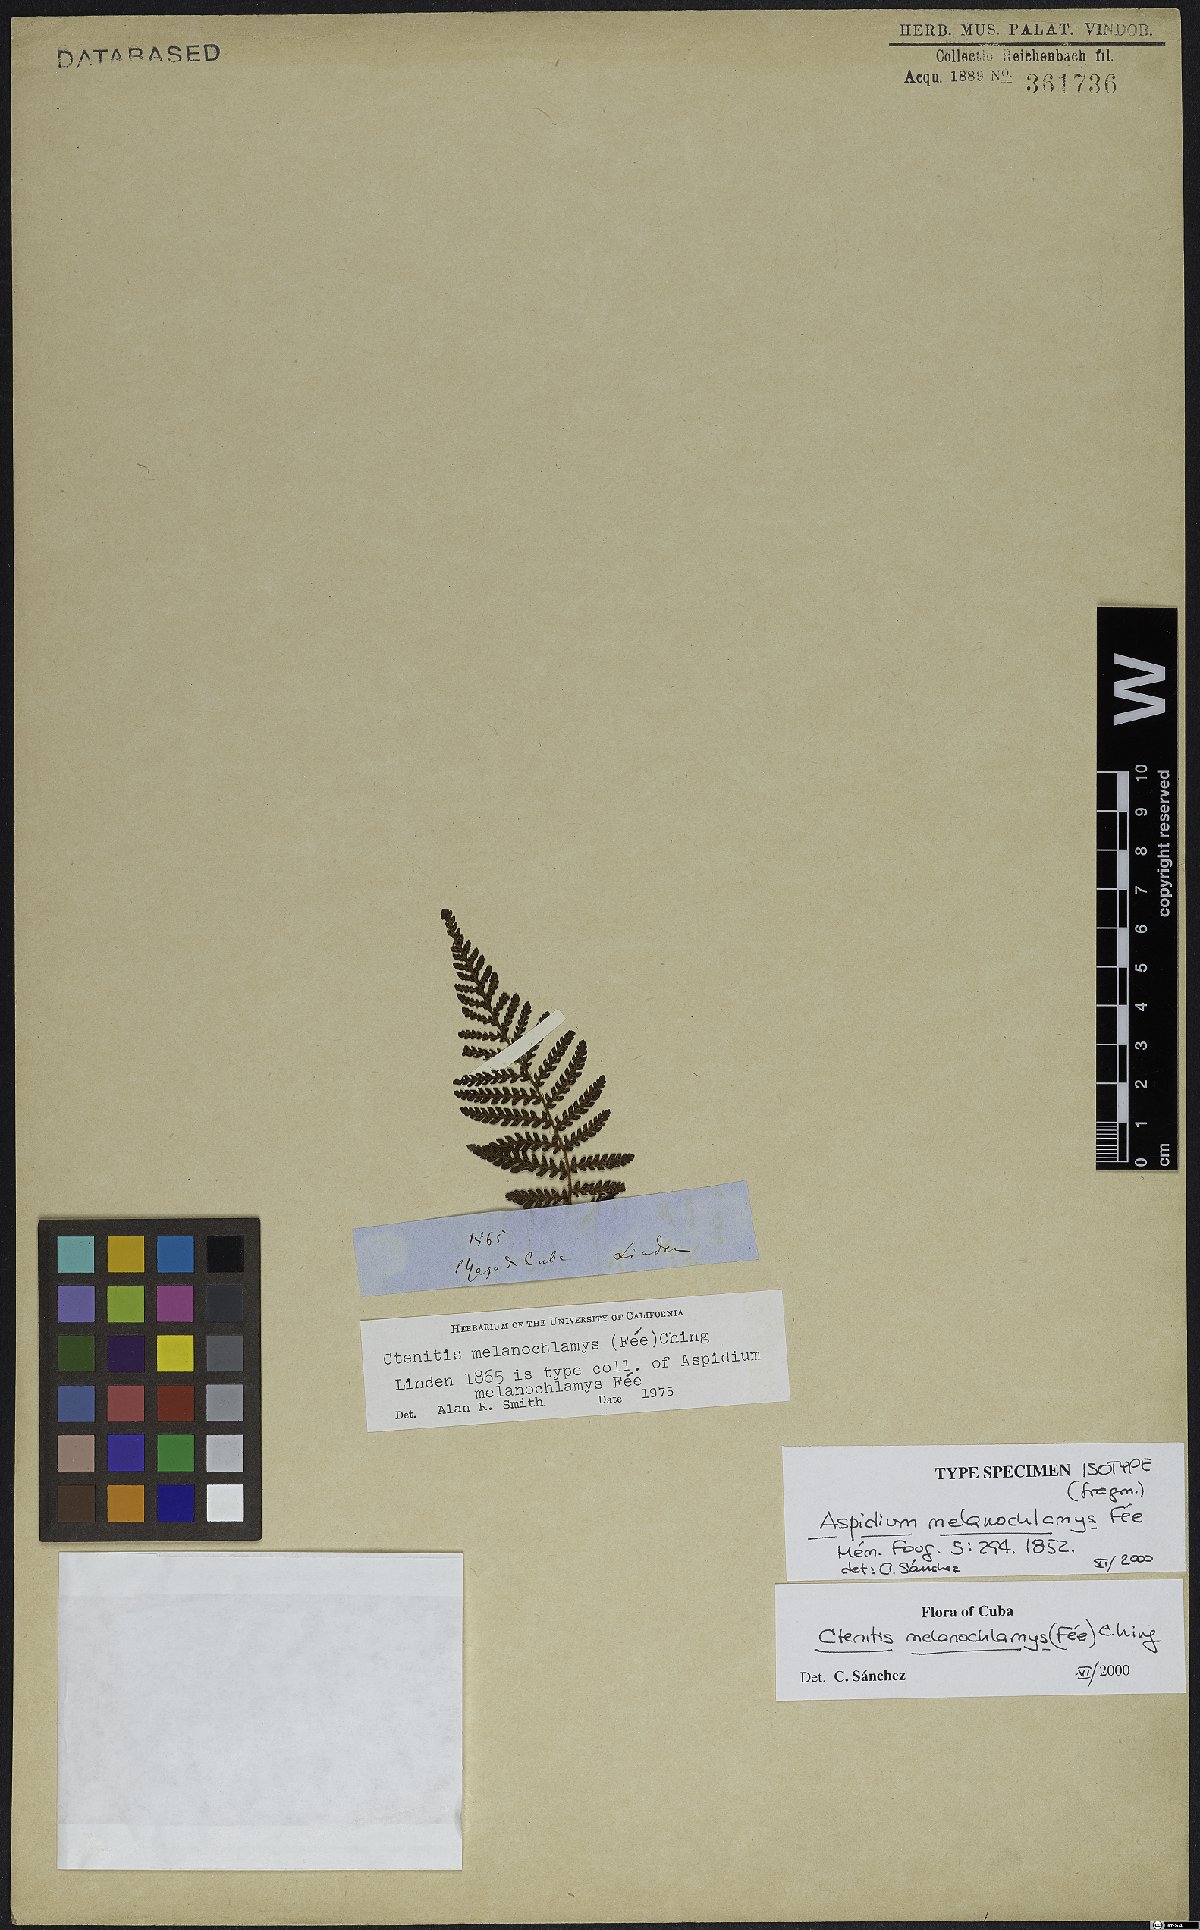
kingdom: Plantae
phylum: Tracheophyta
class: Polypodiopsida
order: Polypodiales
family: Dryopteridaceae
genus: Ctenitis
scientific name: Ctenitis melanochlamys
